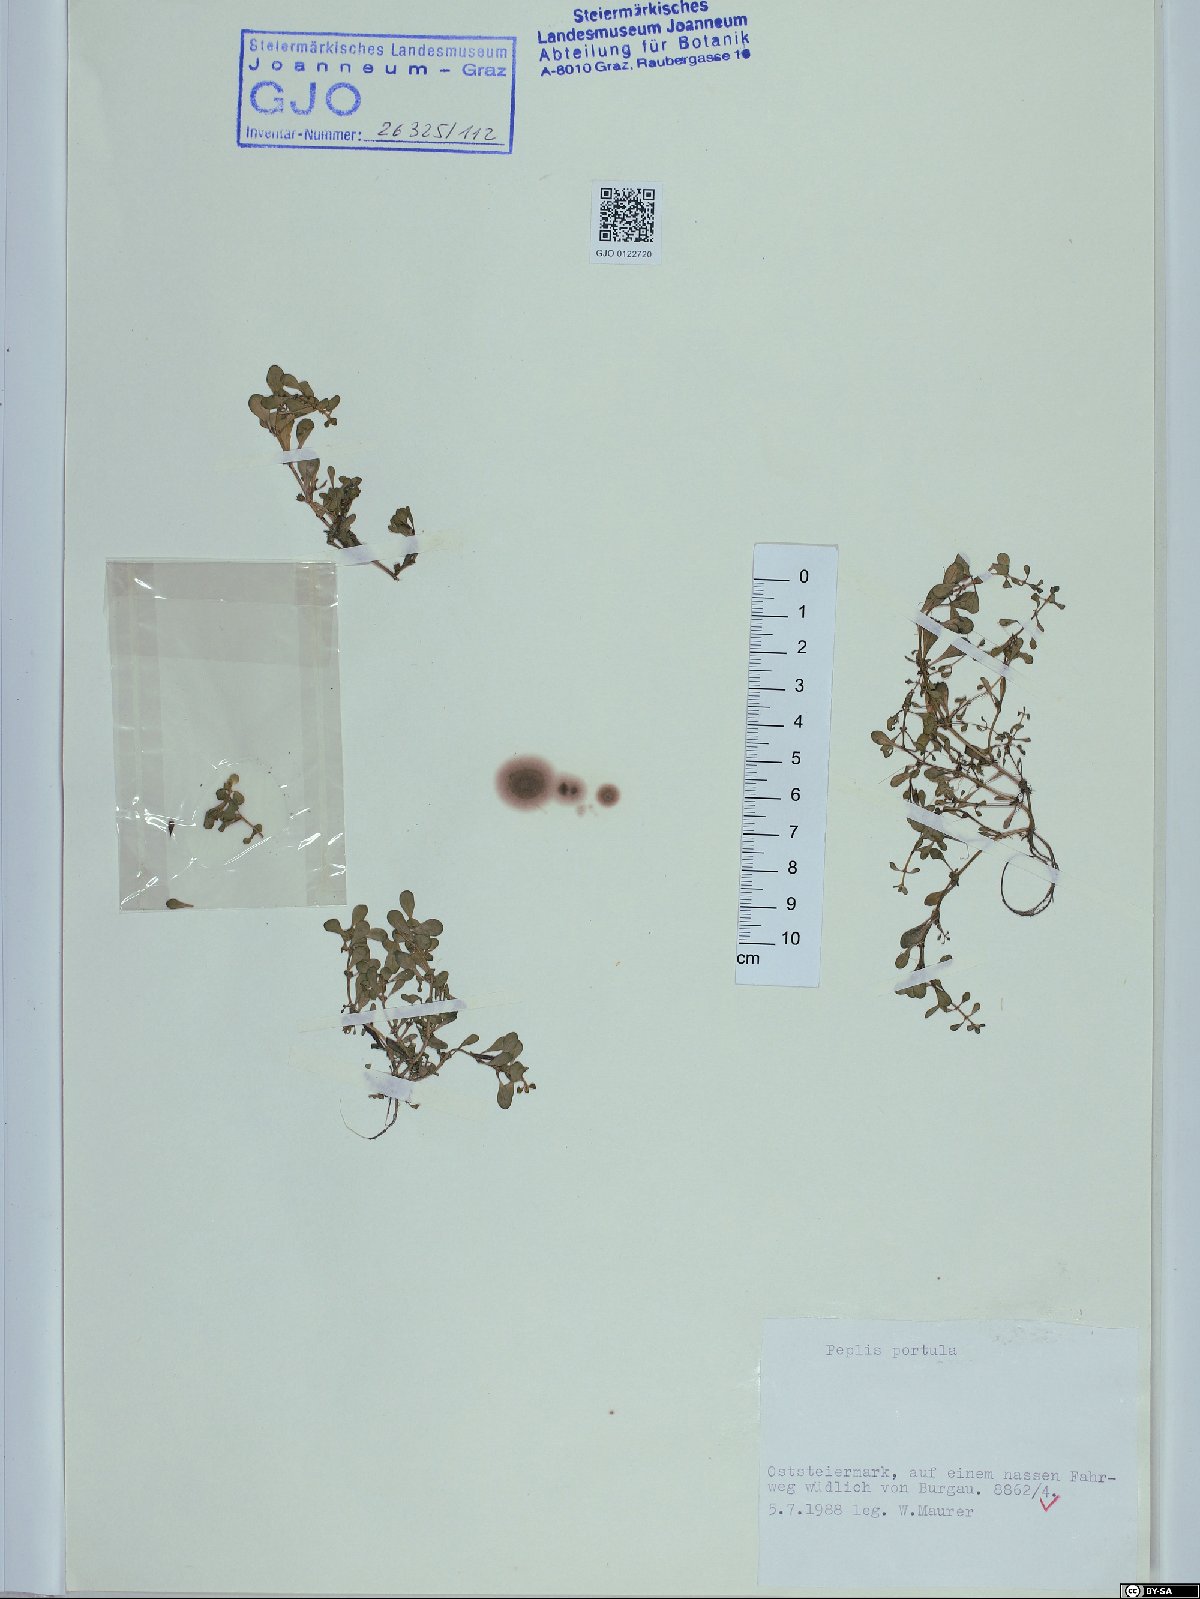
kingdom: Plantae
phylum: Tracheophyta
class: Magnoliopsida
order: Myrtales
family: Lythraceae
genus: Lythrum
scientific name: Lythrum portula
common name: Water purslane
